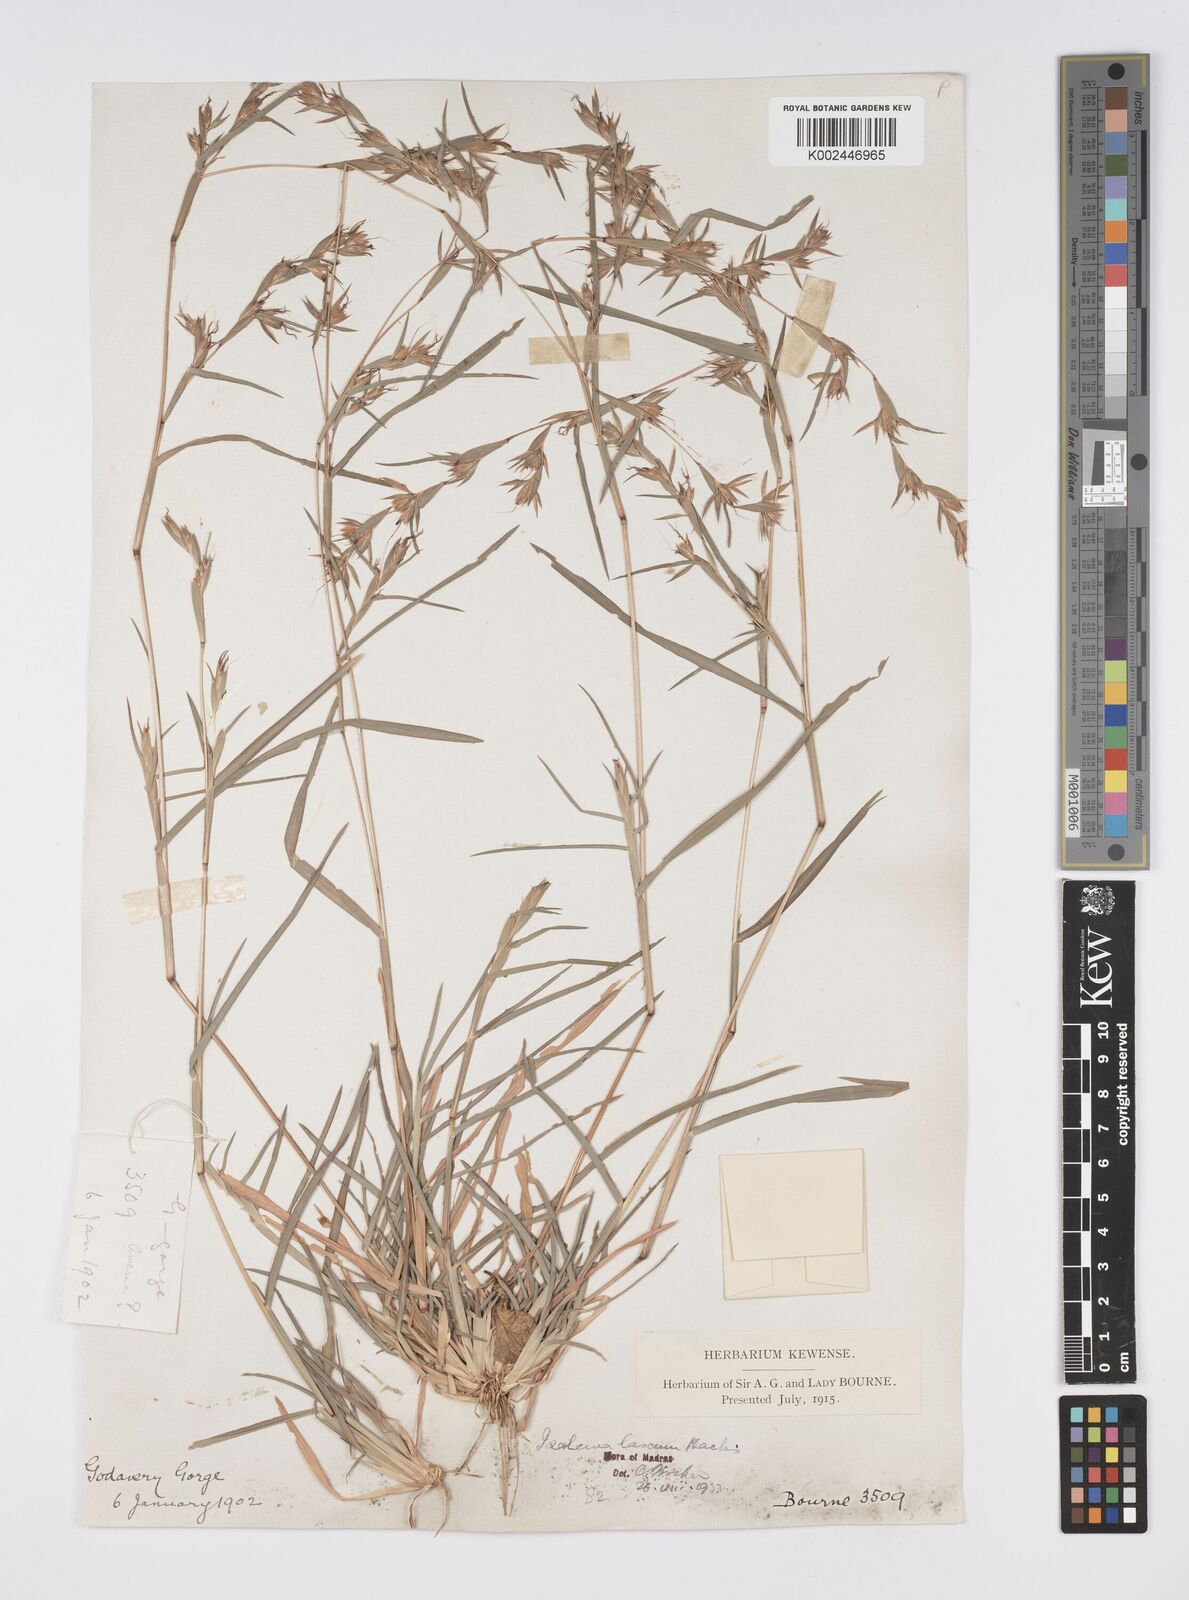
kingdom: Plantae
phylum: Tracheophyta
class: Liliopsida
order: Poales
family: Poaceae
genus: Iseilema
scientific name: Iseilema prostratum
